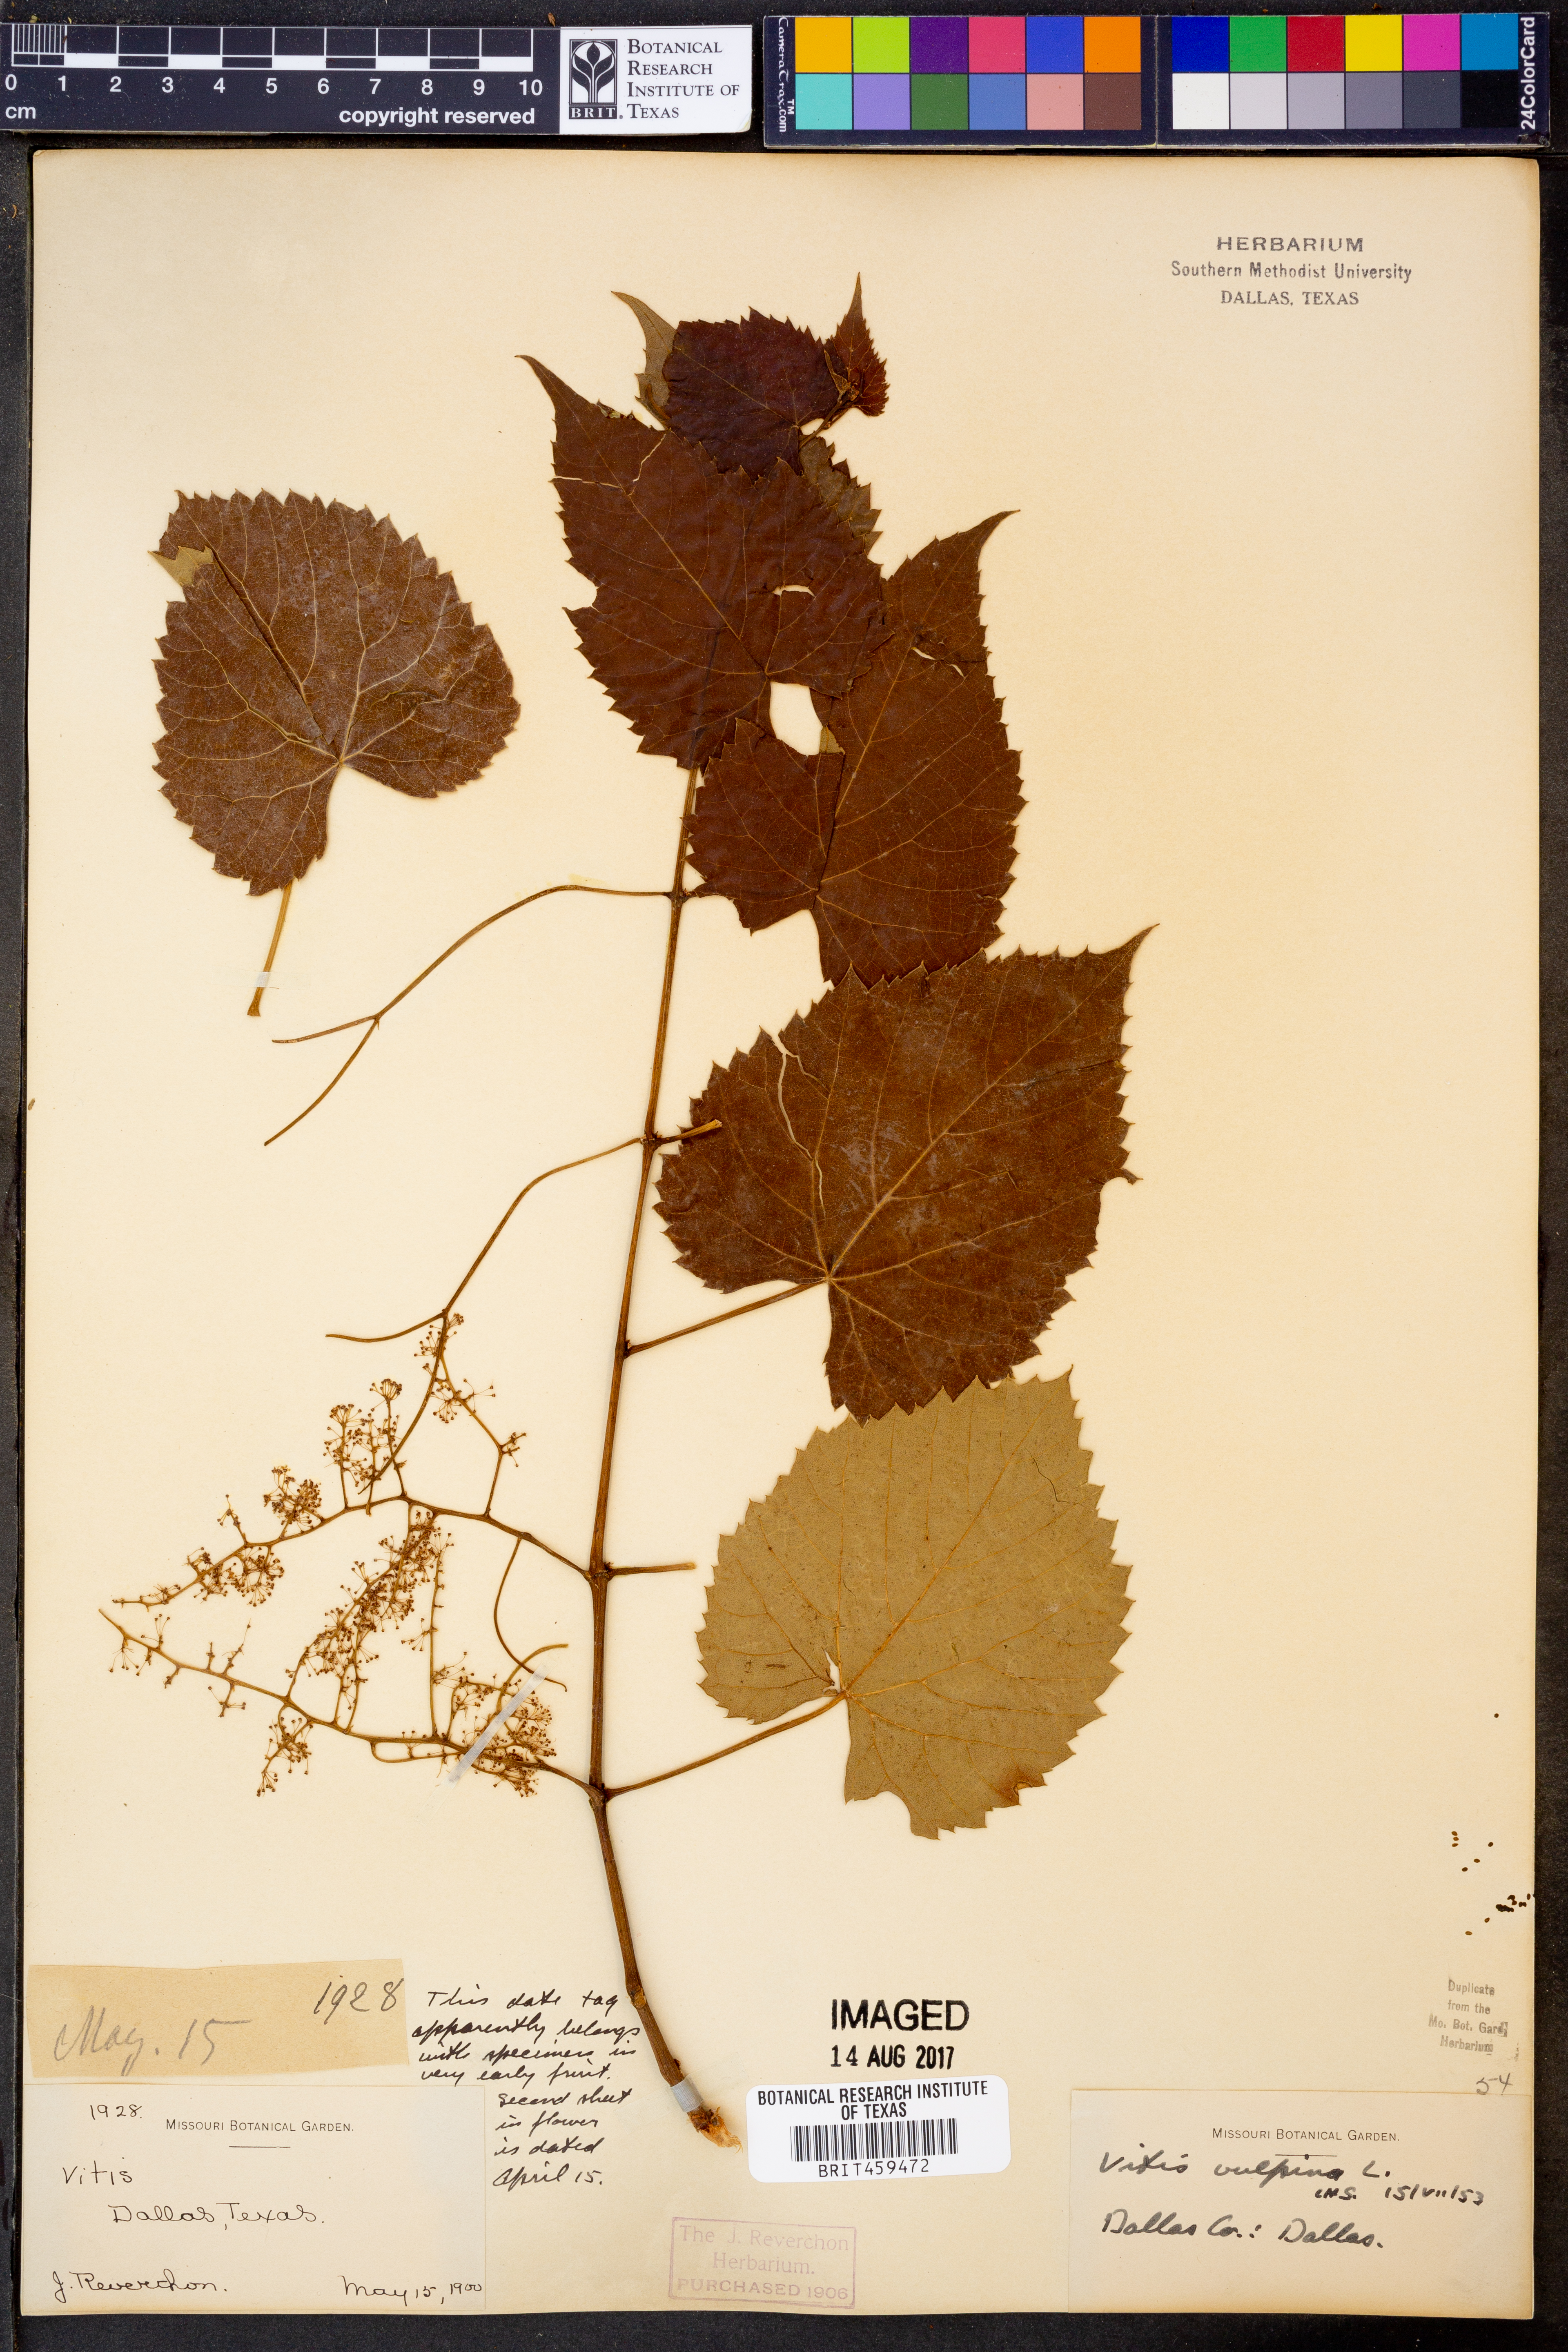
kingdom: Plantae
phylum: Tracheophyta
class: Magnoliopsida
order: Vitales
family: Vitaceae
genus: Vitis
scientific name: Vitis vulpina
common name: Frost grape
